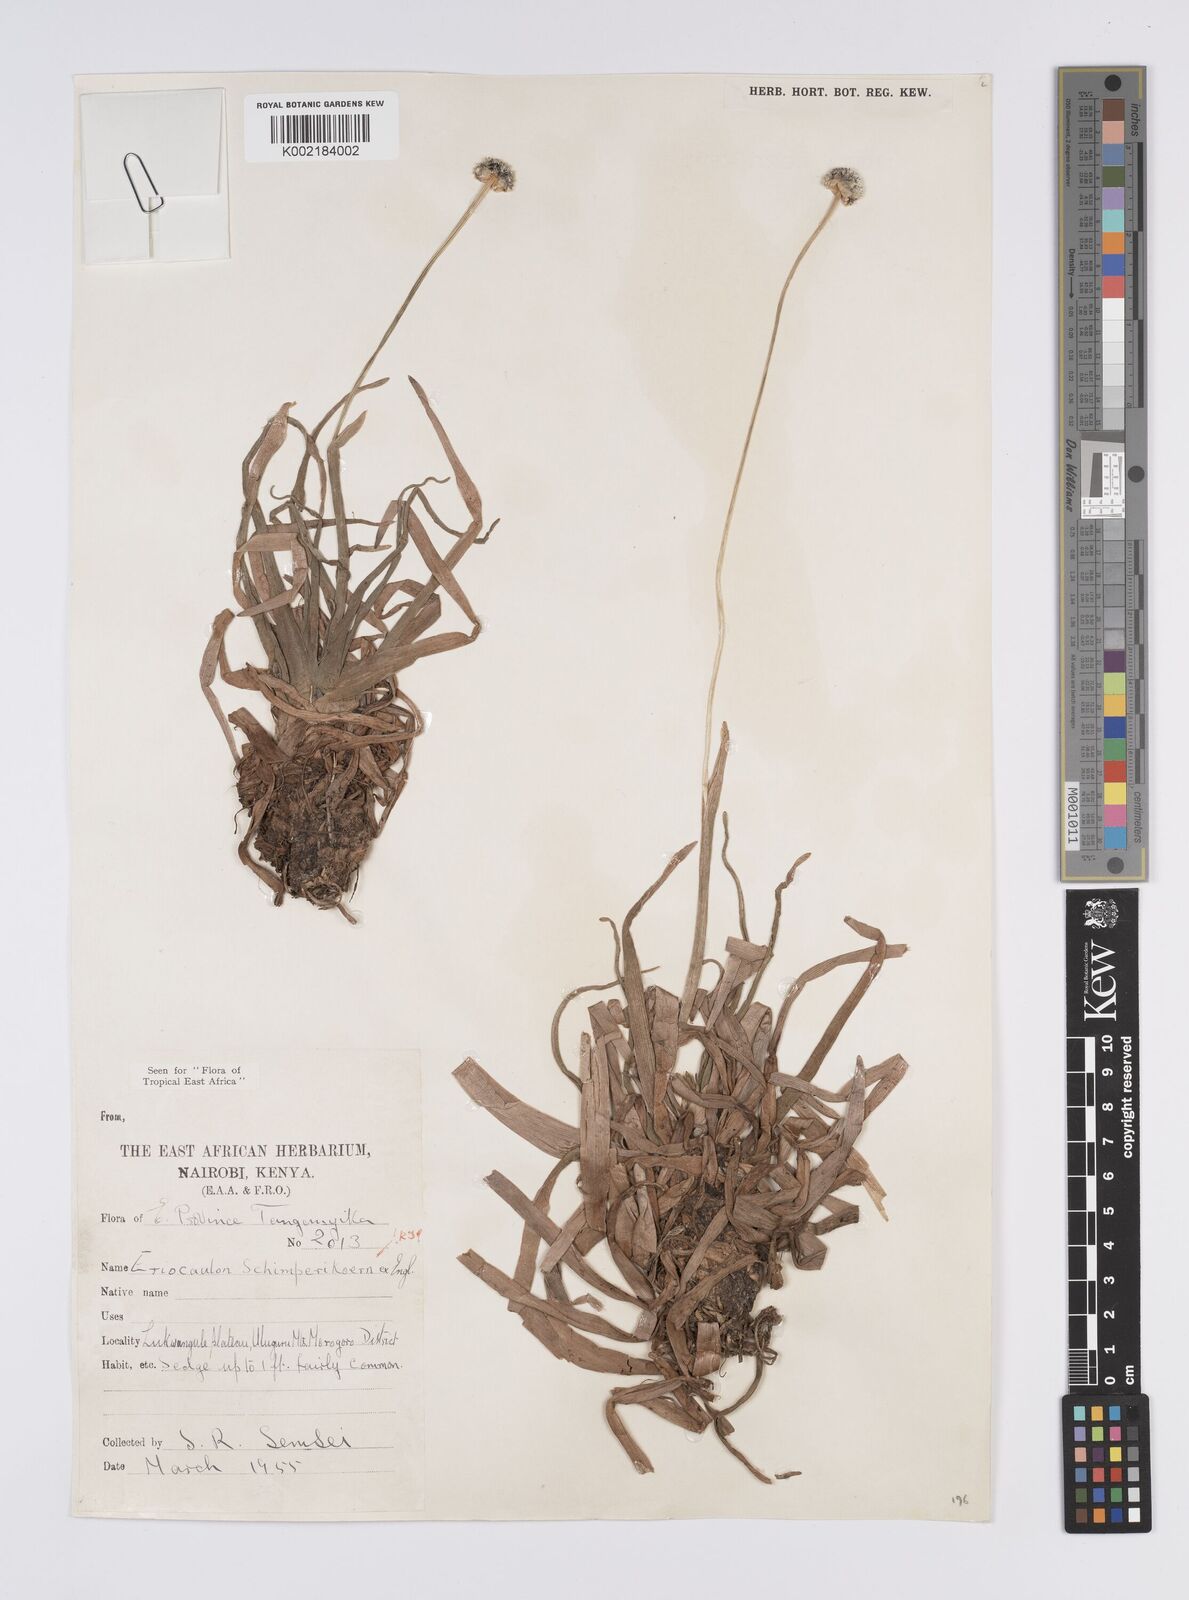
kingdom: Plantae
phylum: Tracheophyta
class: Liliopsida
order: Poales
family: Eriocaulaceae
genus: Eriocaulon
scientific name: Eriocaulon mesanthemoides
